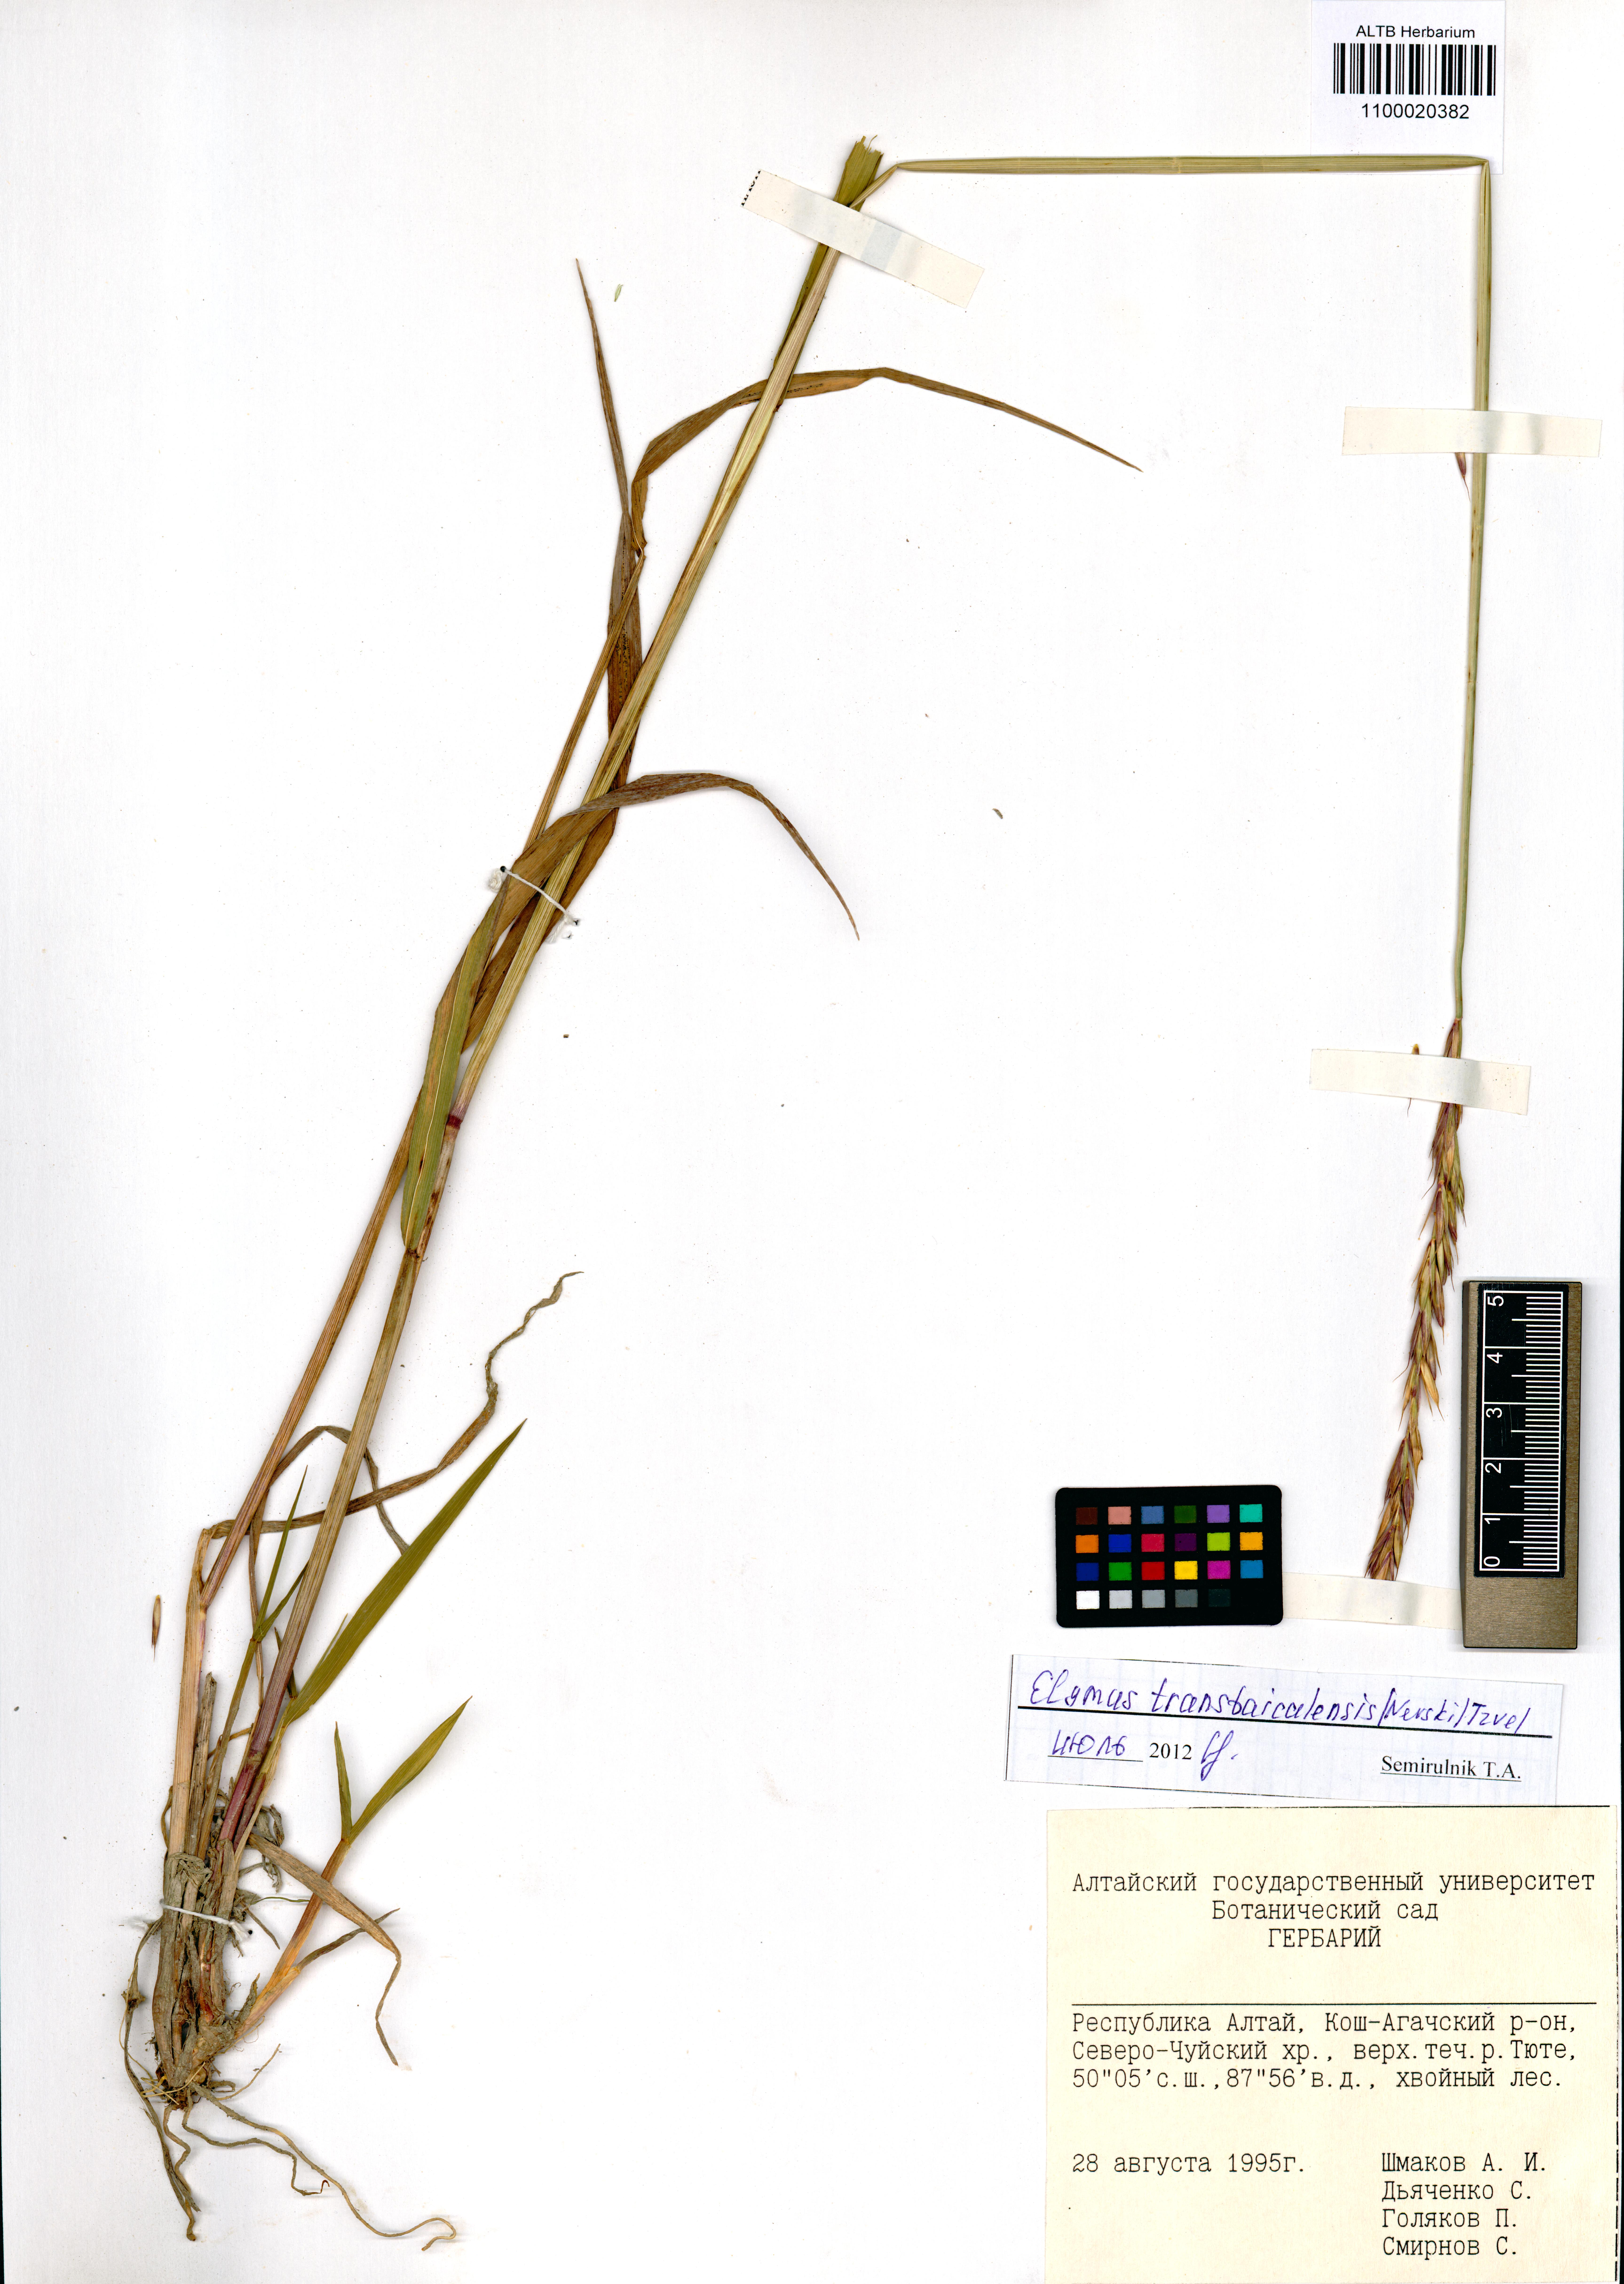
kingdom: Plantae
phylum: Tracheophyta
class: Liliopsida
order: Poales
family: Poaceae
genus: Elymus
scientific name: Elymus mutabilis
